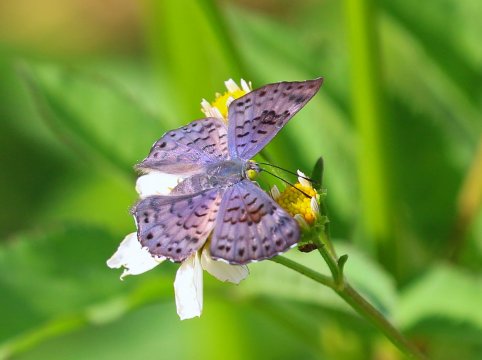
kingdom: Animalia
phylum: Arthropoda
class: Insecta
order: Lepidoptera
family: Riodinidae
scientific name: Riodinidae
